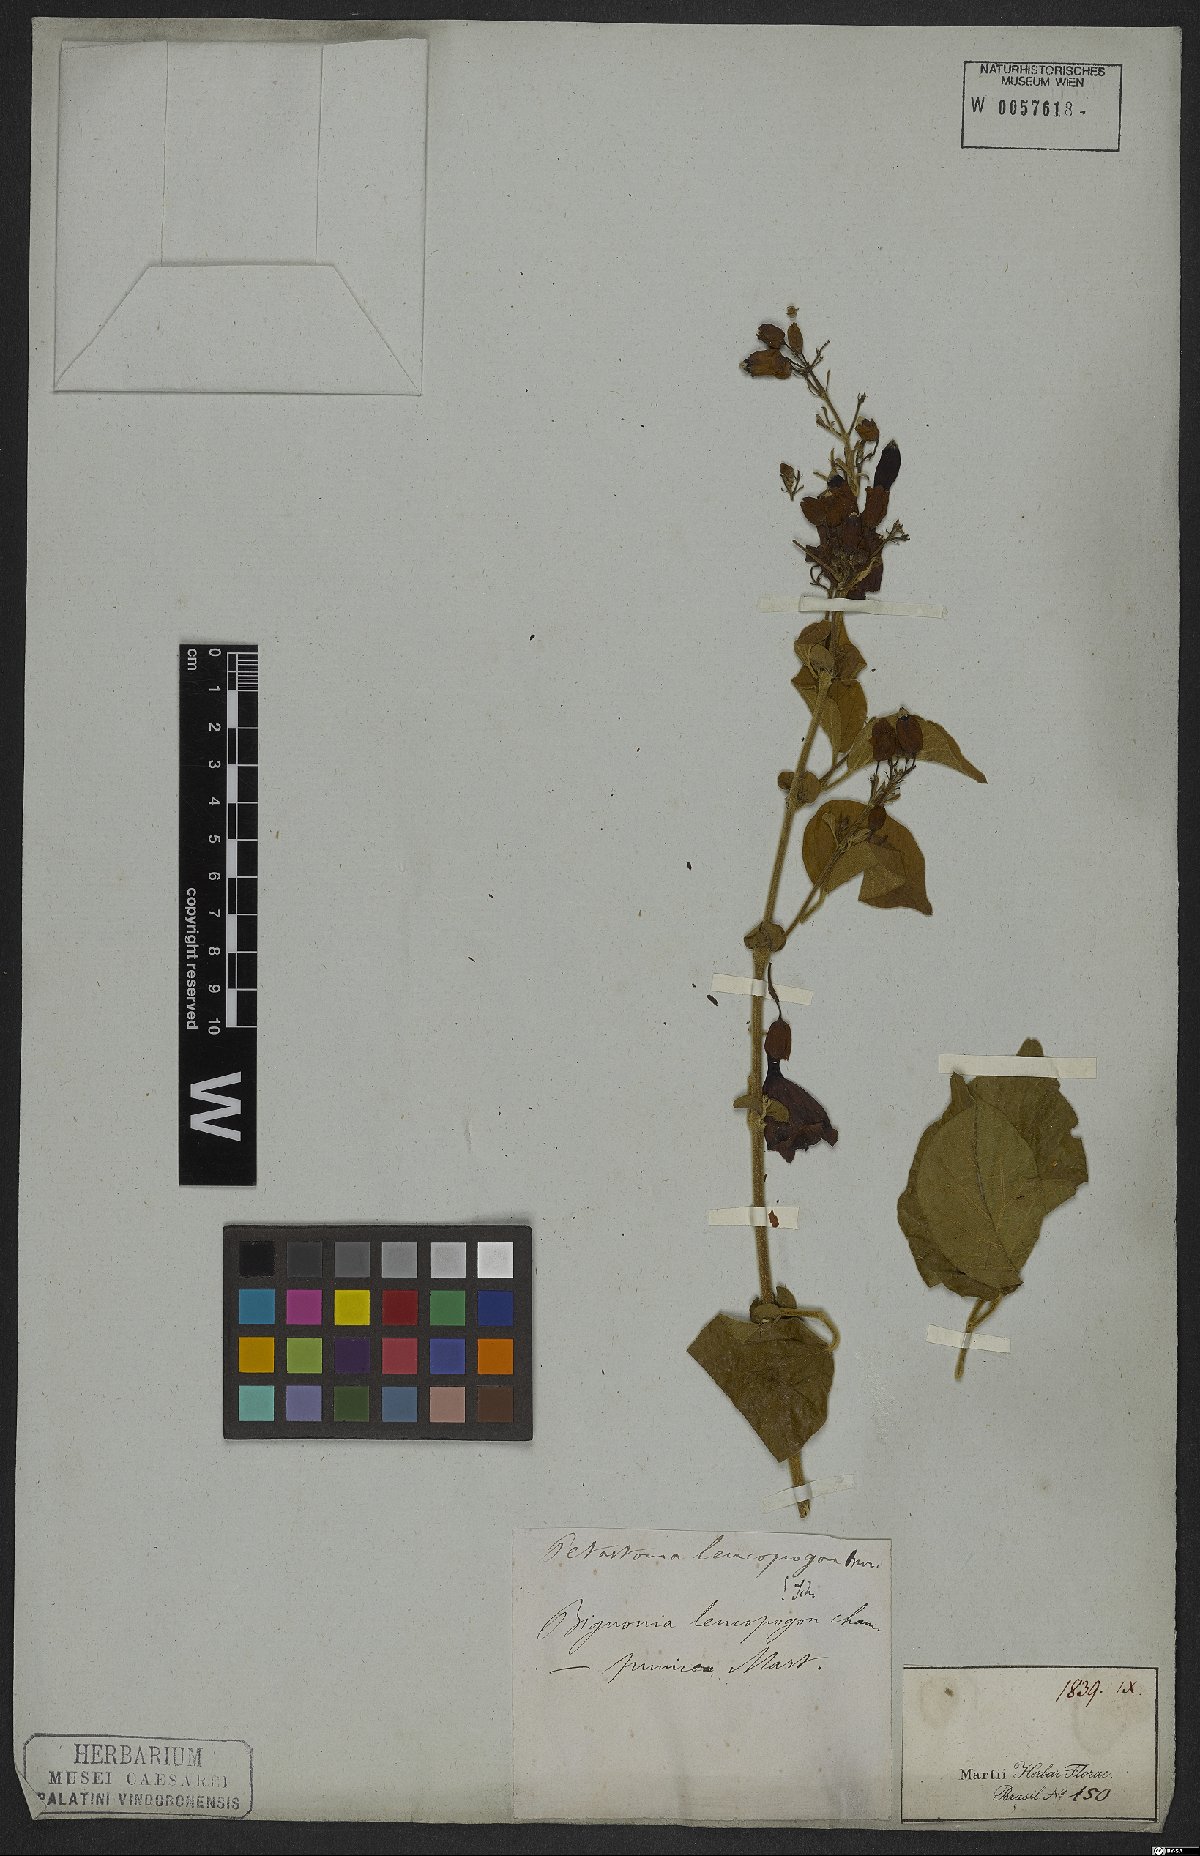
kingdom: Plantae
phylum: Tracheophyta
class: Magnoliopsida
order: Lamiales
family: Bignoniaceae
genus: Fridericia
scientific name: Fridericia leucopogon
